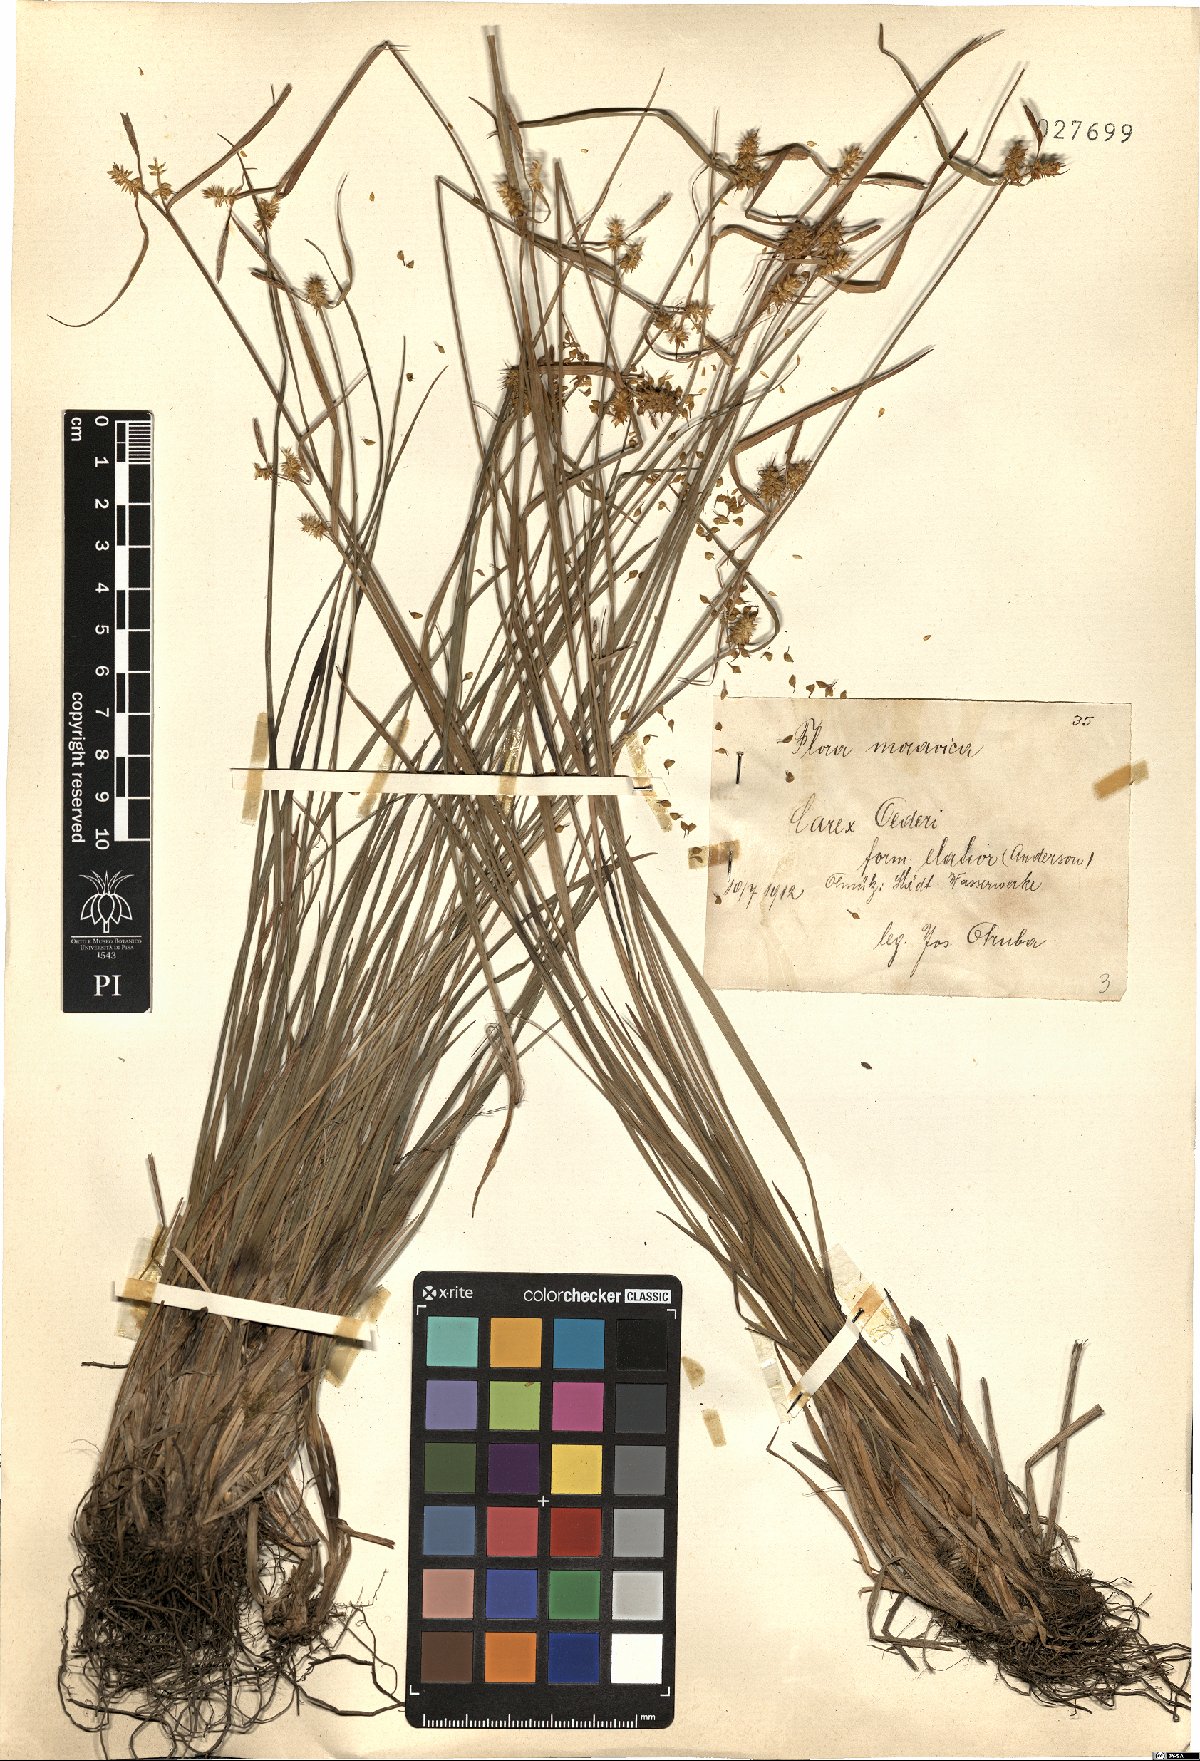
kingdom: Plantae
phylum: Tracheophyta
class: Liliopsida
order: Poales
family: Cyperaceae
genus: Carex
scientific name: Carex oederi
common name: Common & small-fruited yellow-sedge
